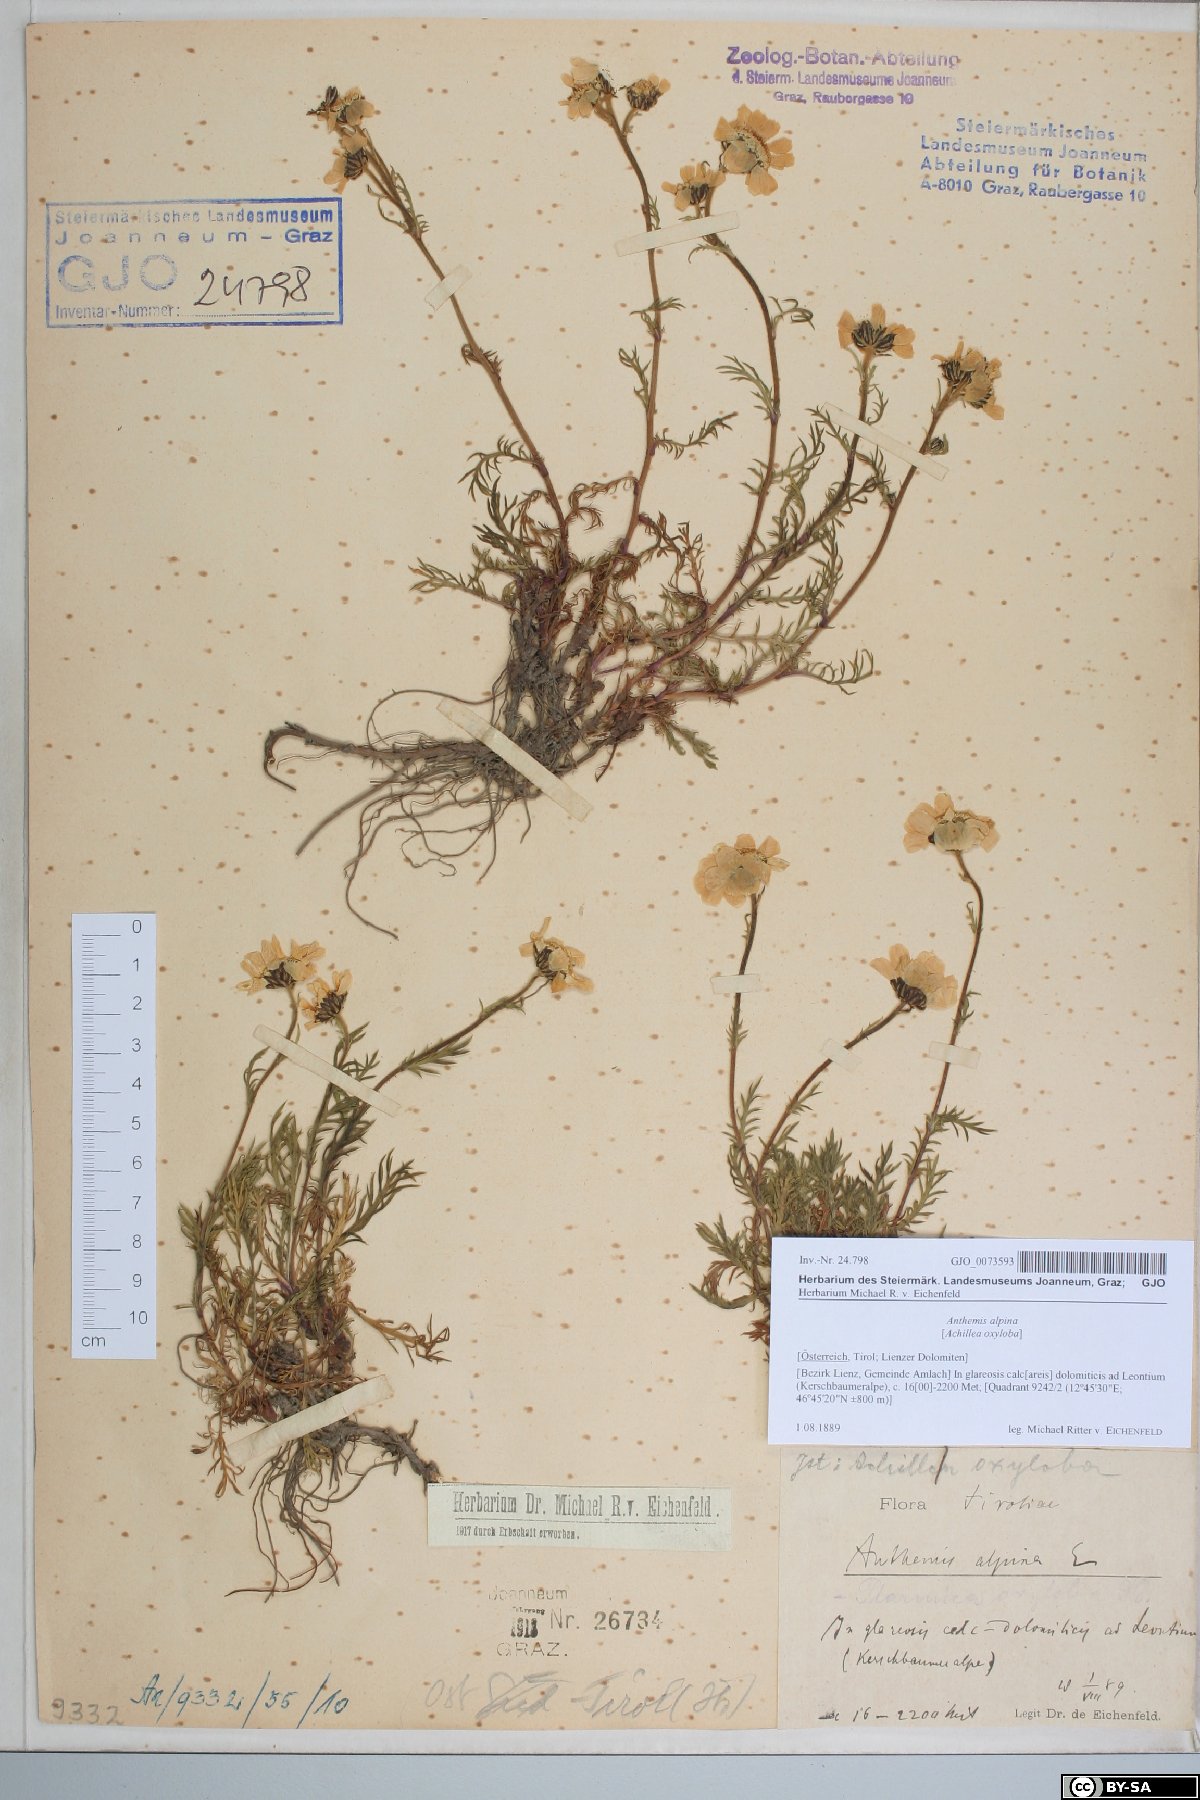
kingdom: Plantae
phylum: Tracheophyta
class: Magnoliopsida
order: Asterales
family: Asteraceae
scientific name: Asteraceae
